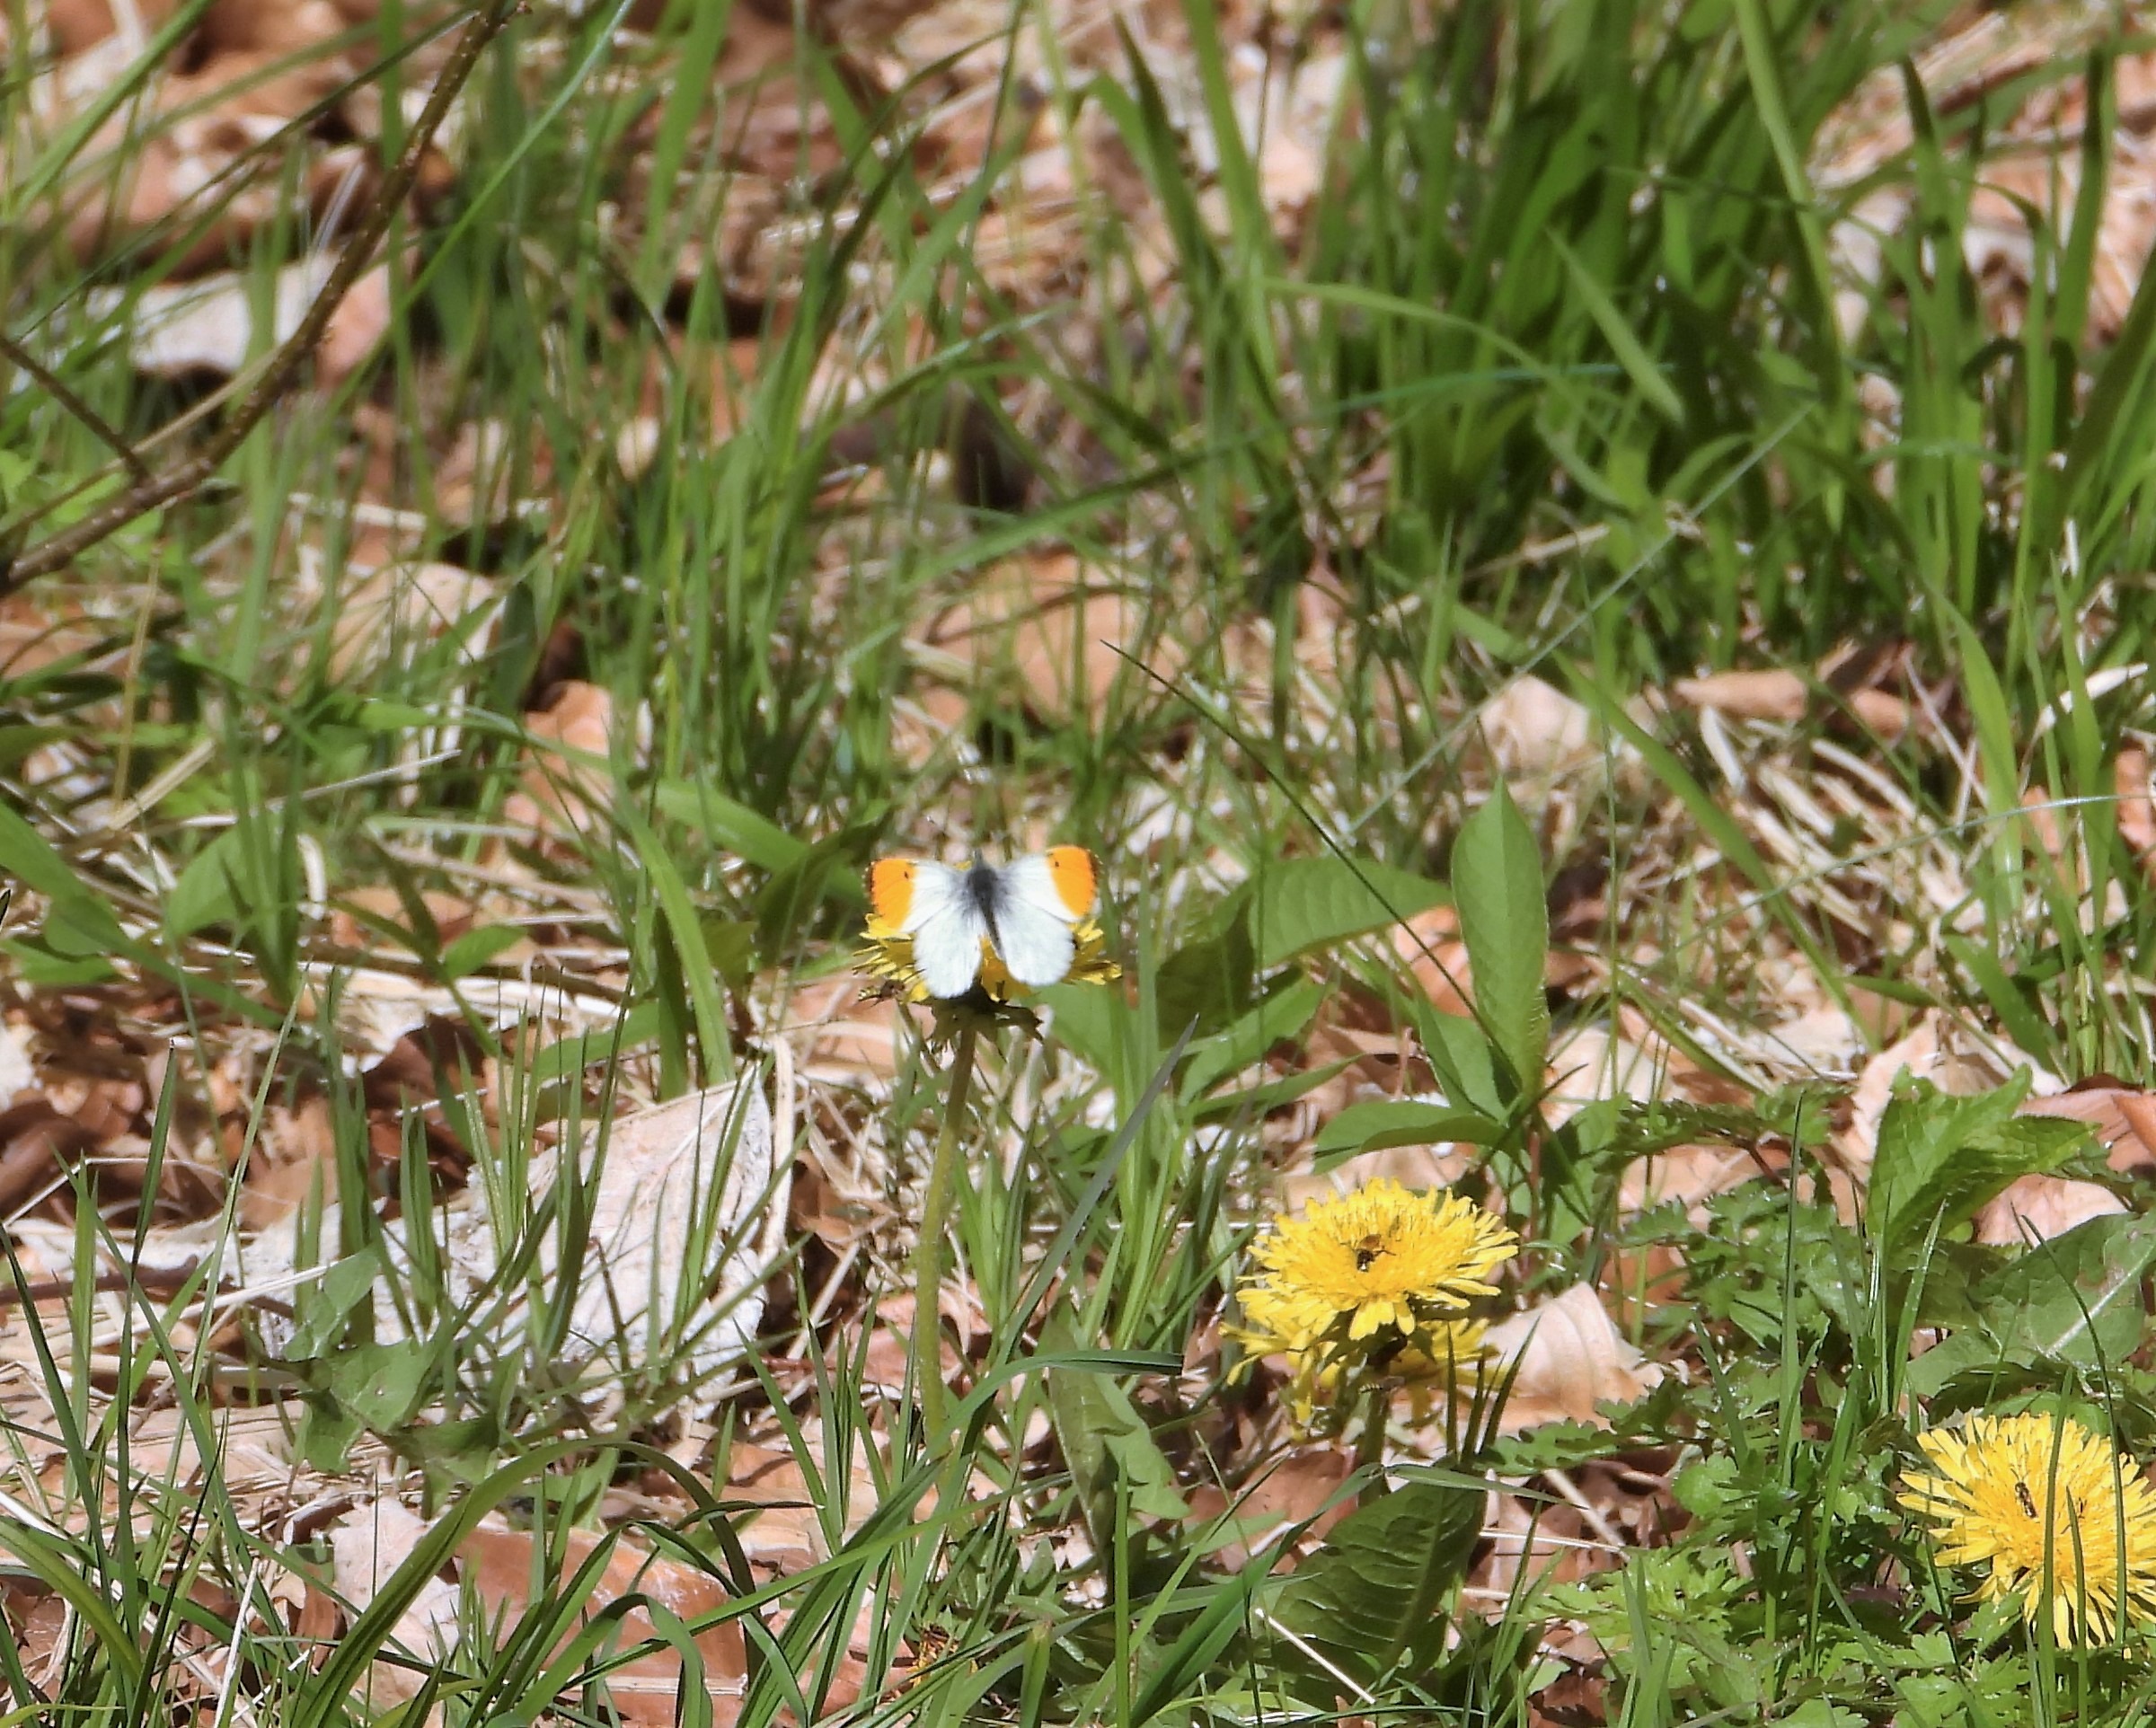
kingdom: Animalia
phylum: Arthropoda
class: Insecta
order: Lepidoptera
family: Pieridae
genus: Anthocharis
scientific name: Anthocharis cardamines
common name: Aurora
